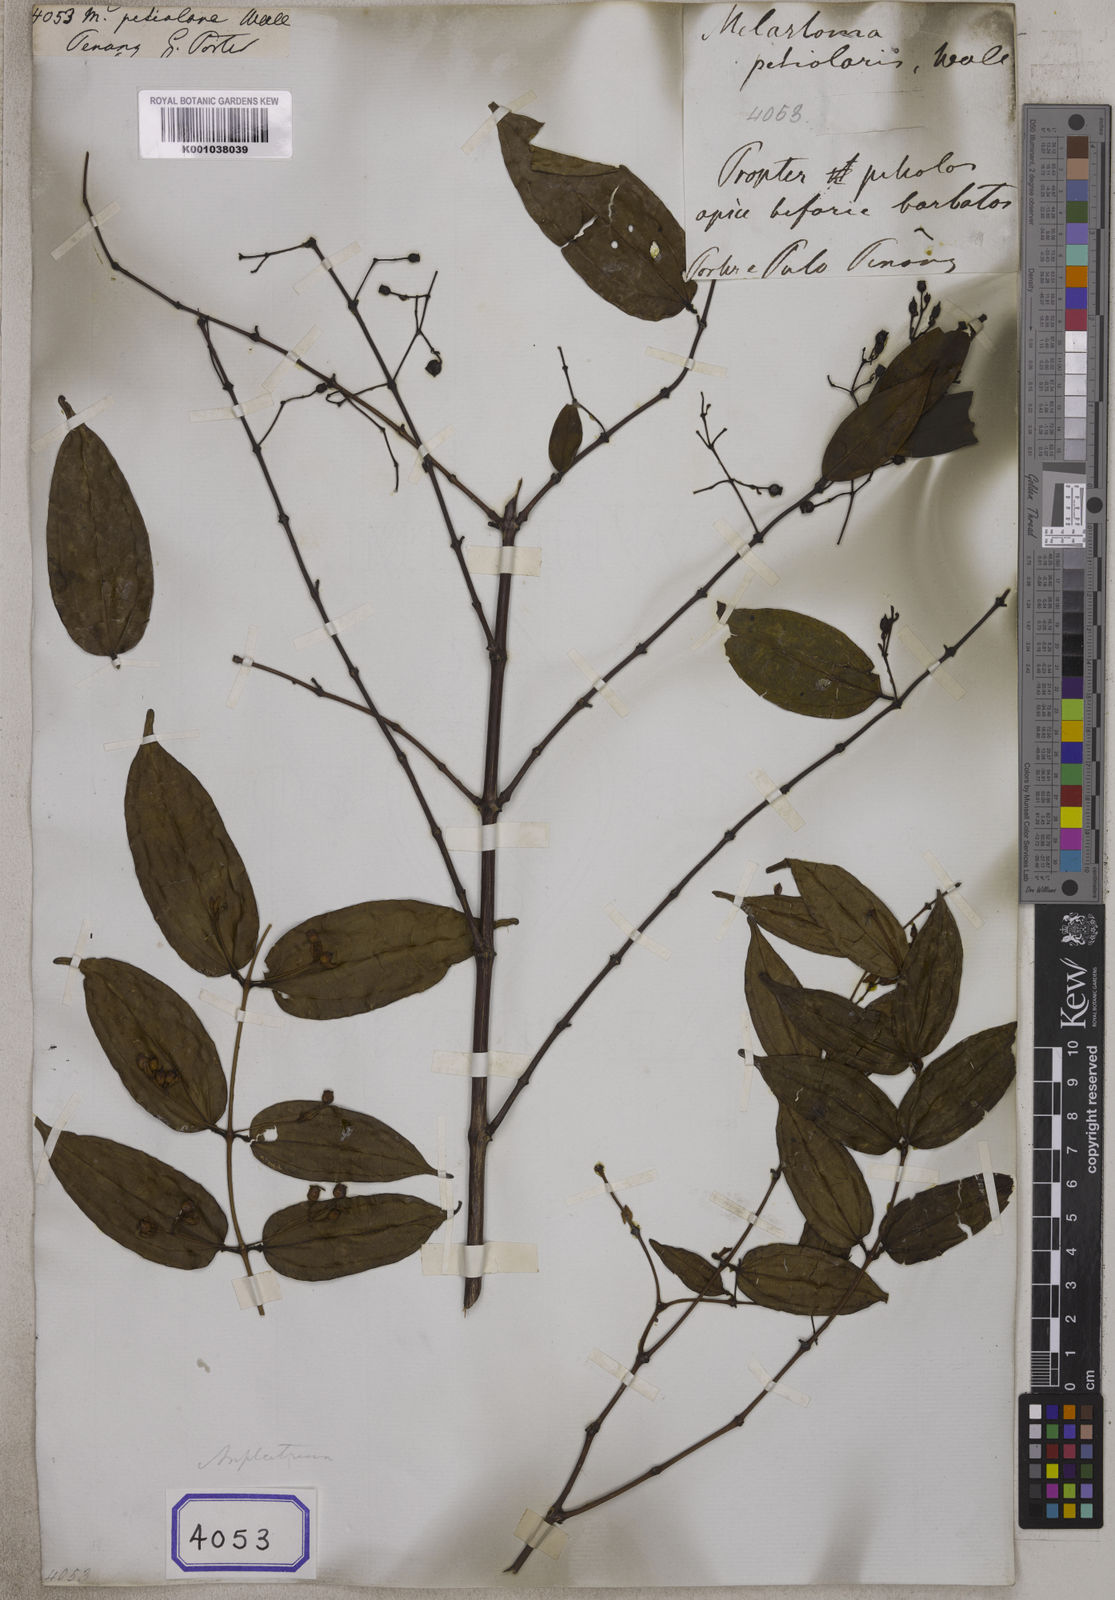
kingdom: Plantae
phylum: Tracheophyta
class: Magnoliopsida
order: Myrtales
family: Melastomataceae
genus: Melastoma
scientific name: Melastoma
